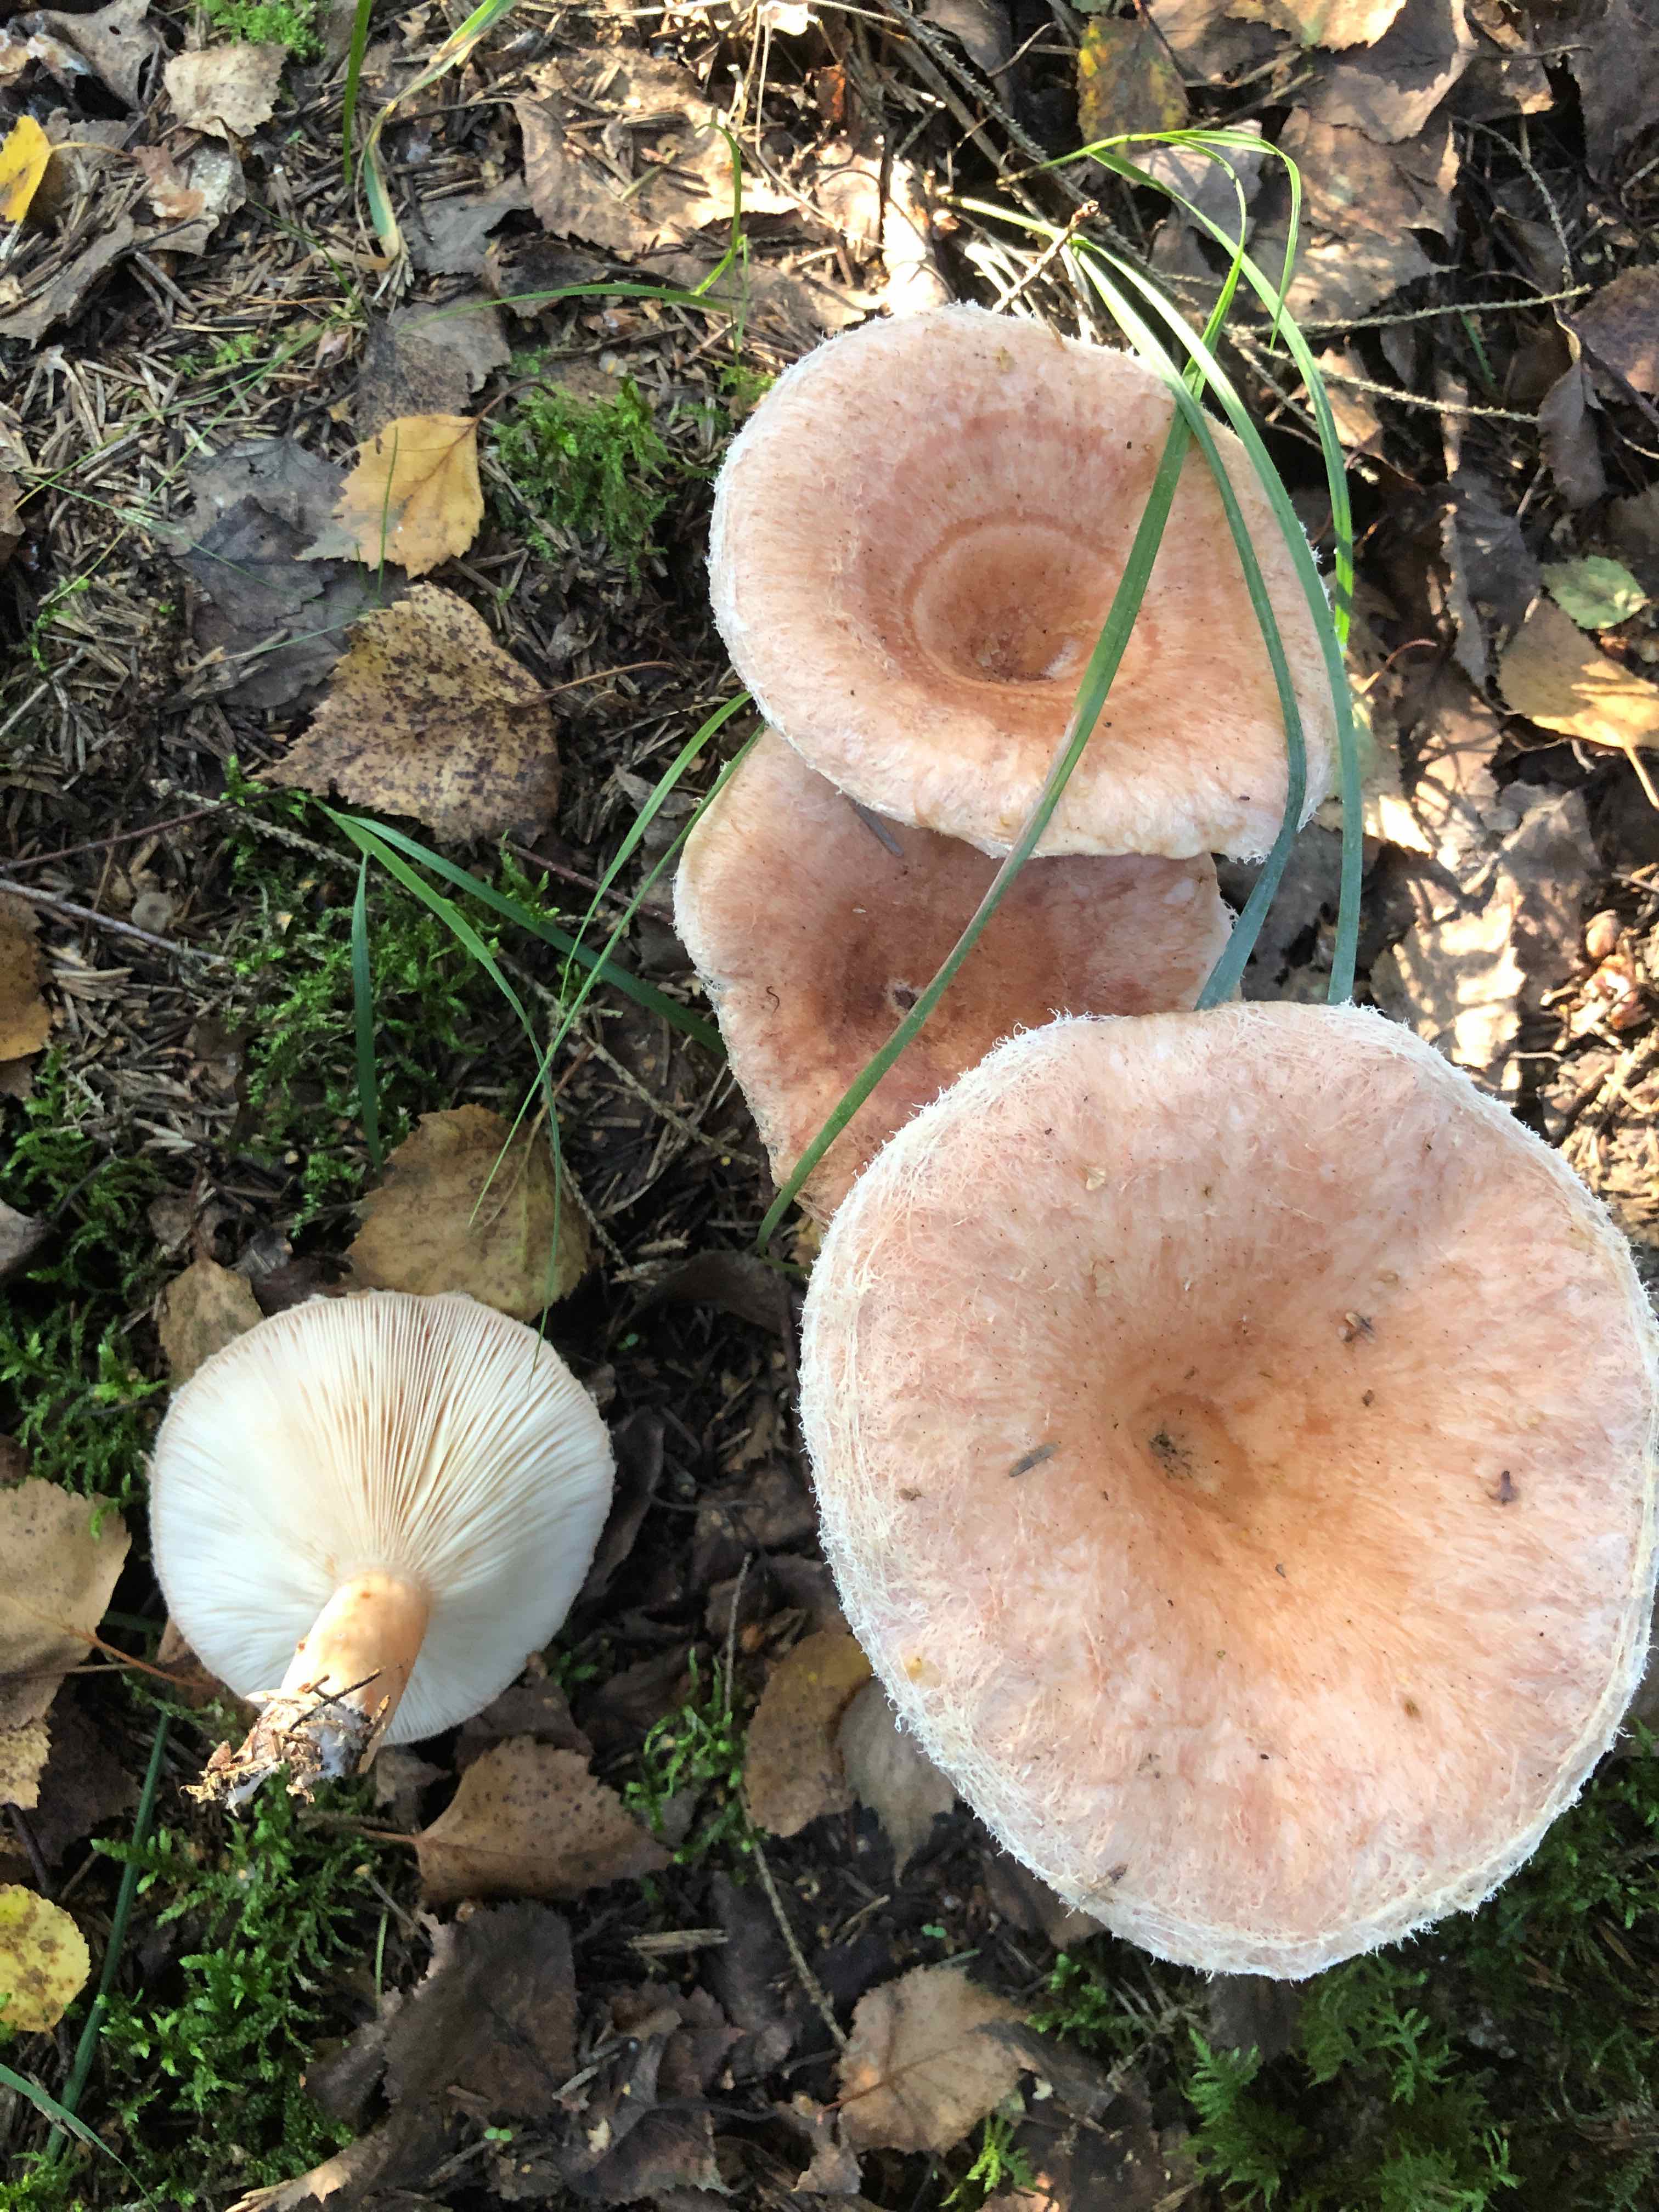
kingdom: Fungi
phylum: Basidiomycota
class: Agaricomycetes
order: Russulales
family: Russulaceae
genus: Lactarius
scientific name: Lactarius torminosus
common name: skægget mælkehat
